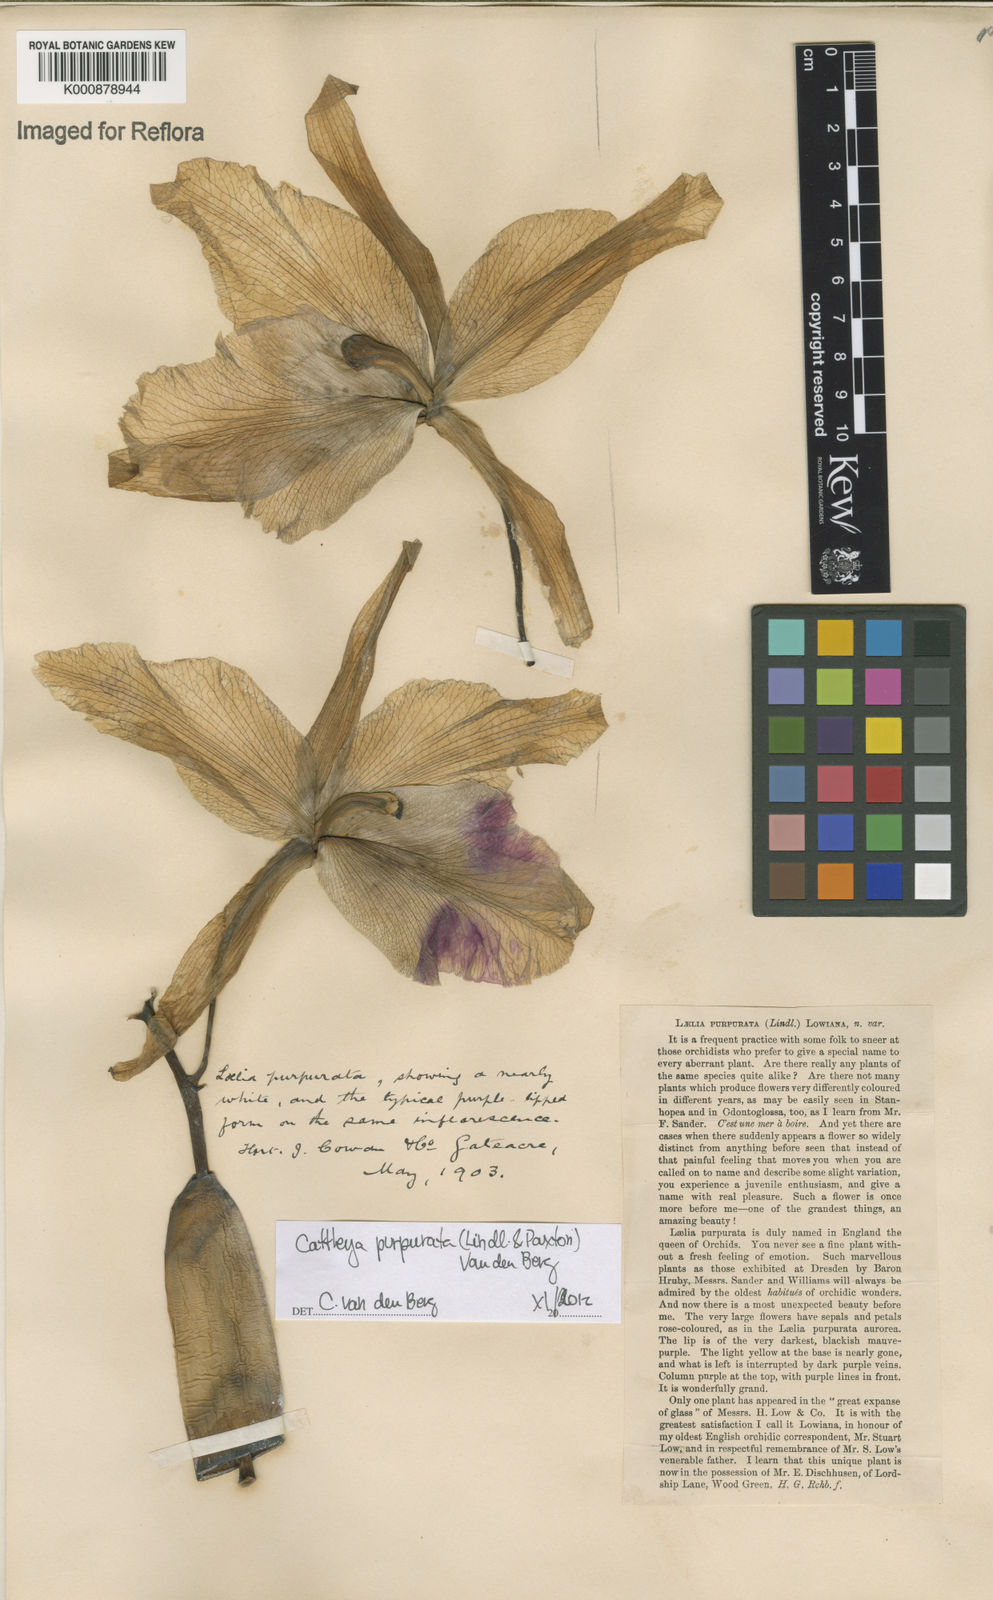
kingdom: Plantae
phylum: Tracheophyta
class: Liliopsida
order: Asparagales
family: Orchidaceae
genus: Cattleya
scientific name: Cattleya
